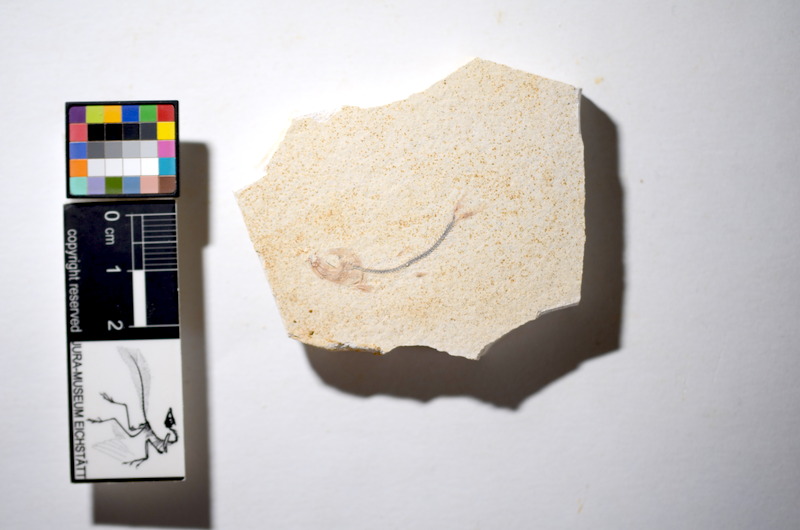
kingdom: Animalia
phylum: Chordata
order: Salmoniformes
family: Orthogonikleithridae
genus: Orthogonikleithrus
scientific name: Orthogonikleithrus hoelli
